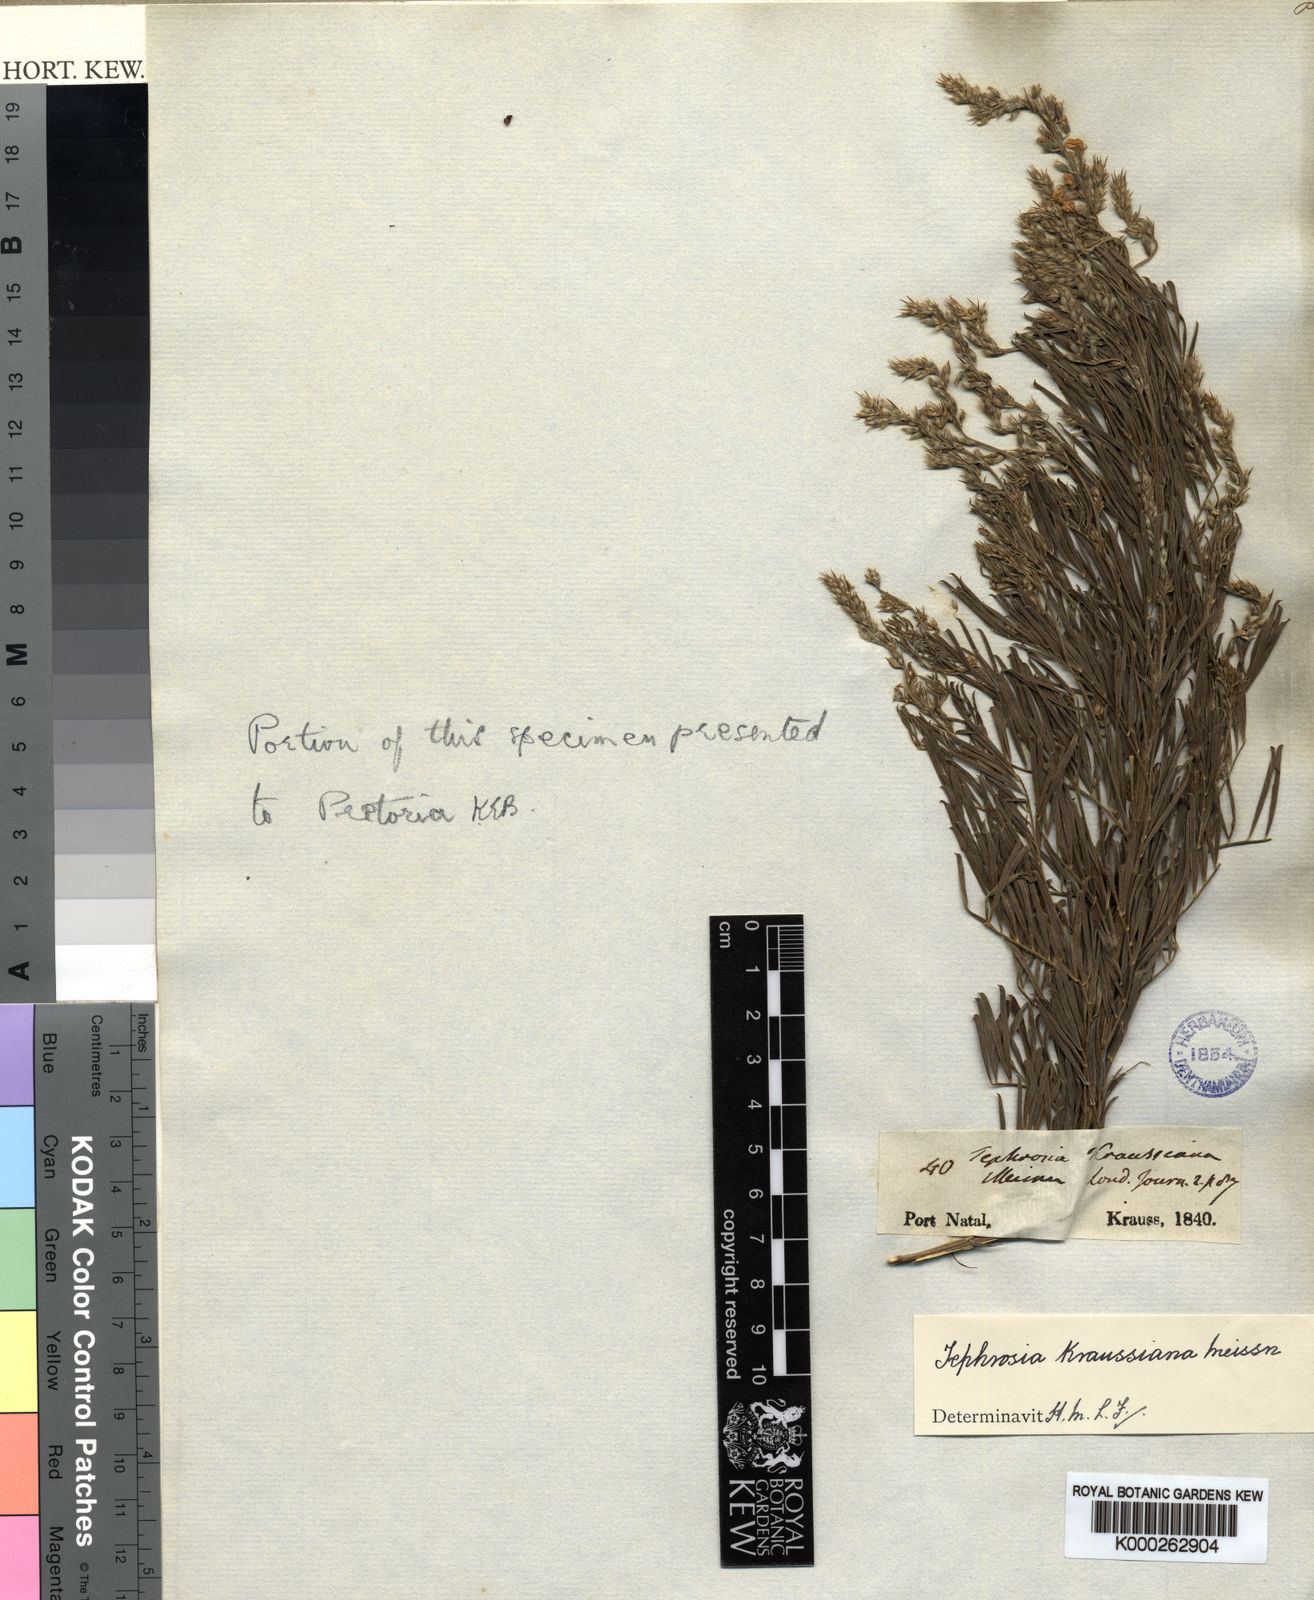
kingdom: Plantae
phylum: Tracheophyta
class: Magnoliopsida
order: Fabales
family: Fabaceae
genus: Tephrosia
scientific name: Tephrosia kraussiana
